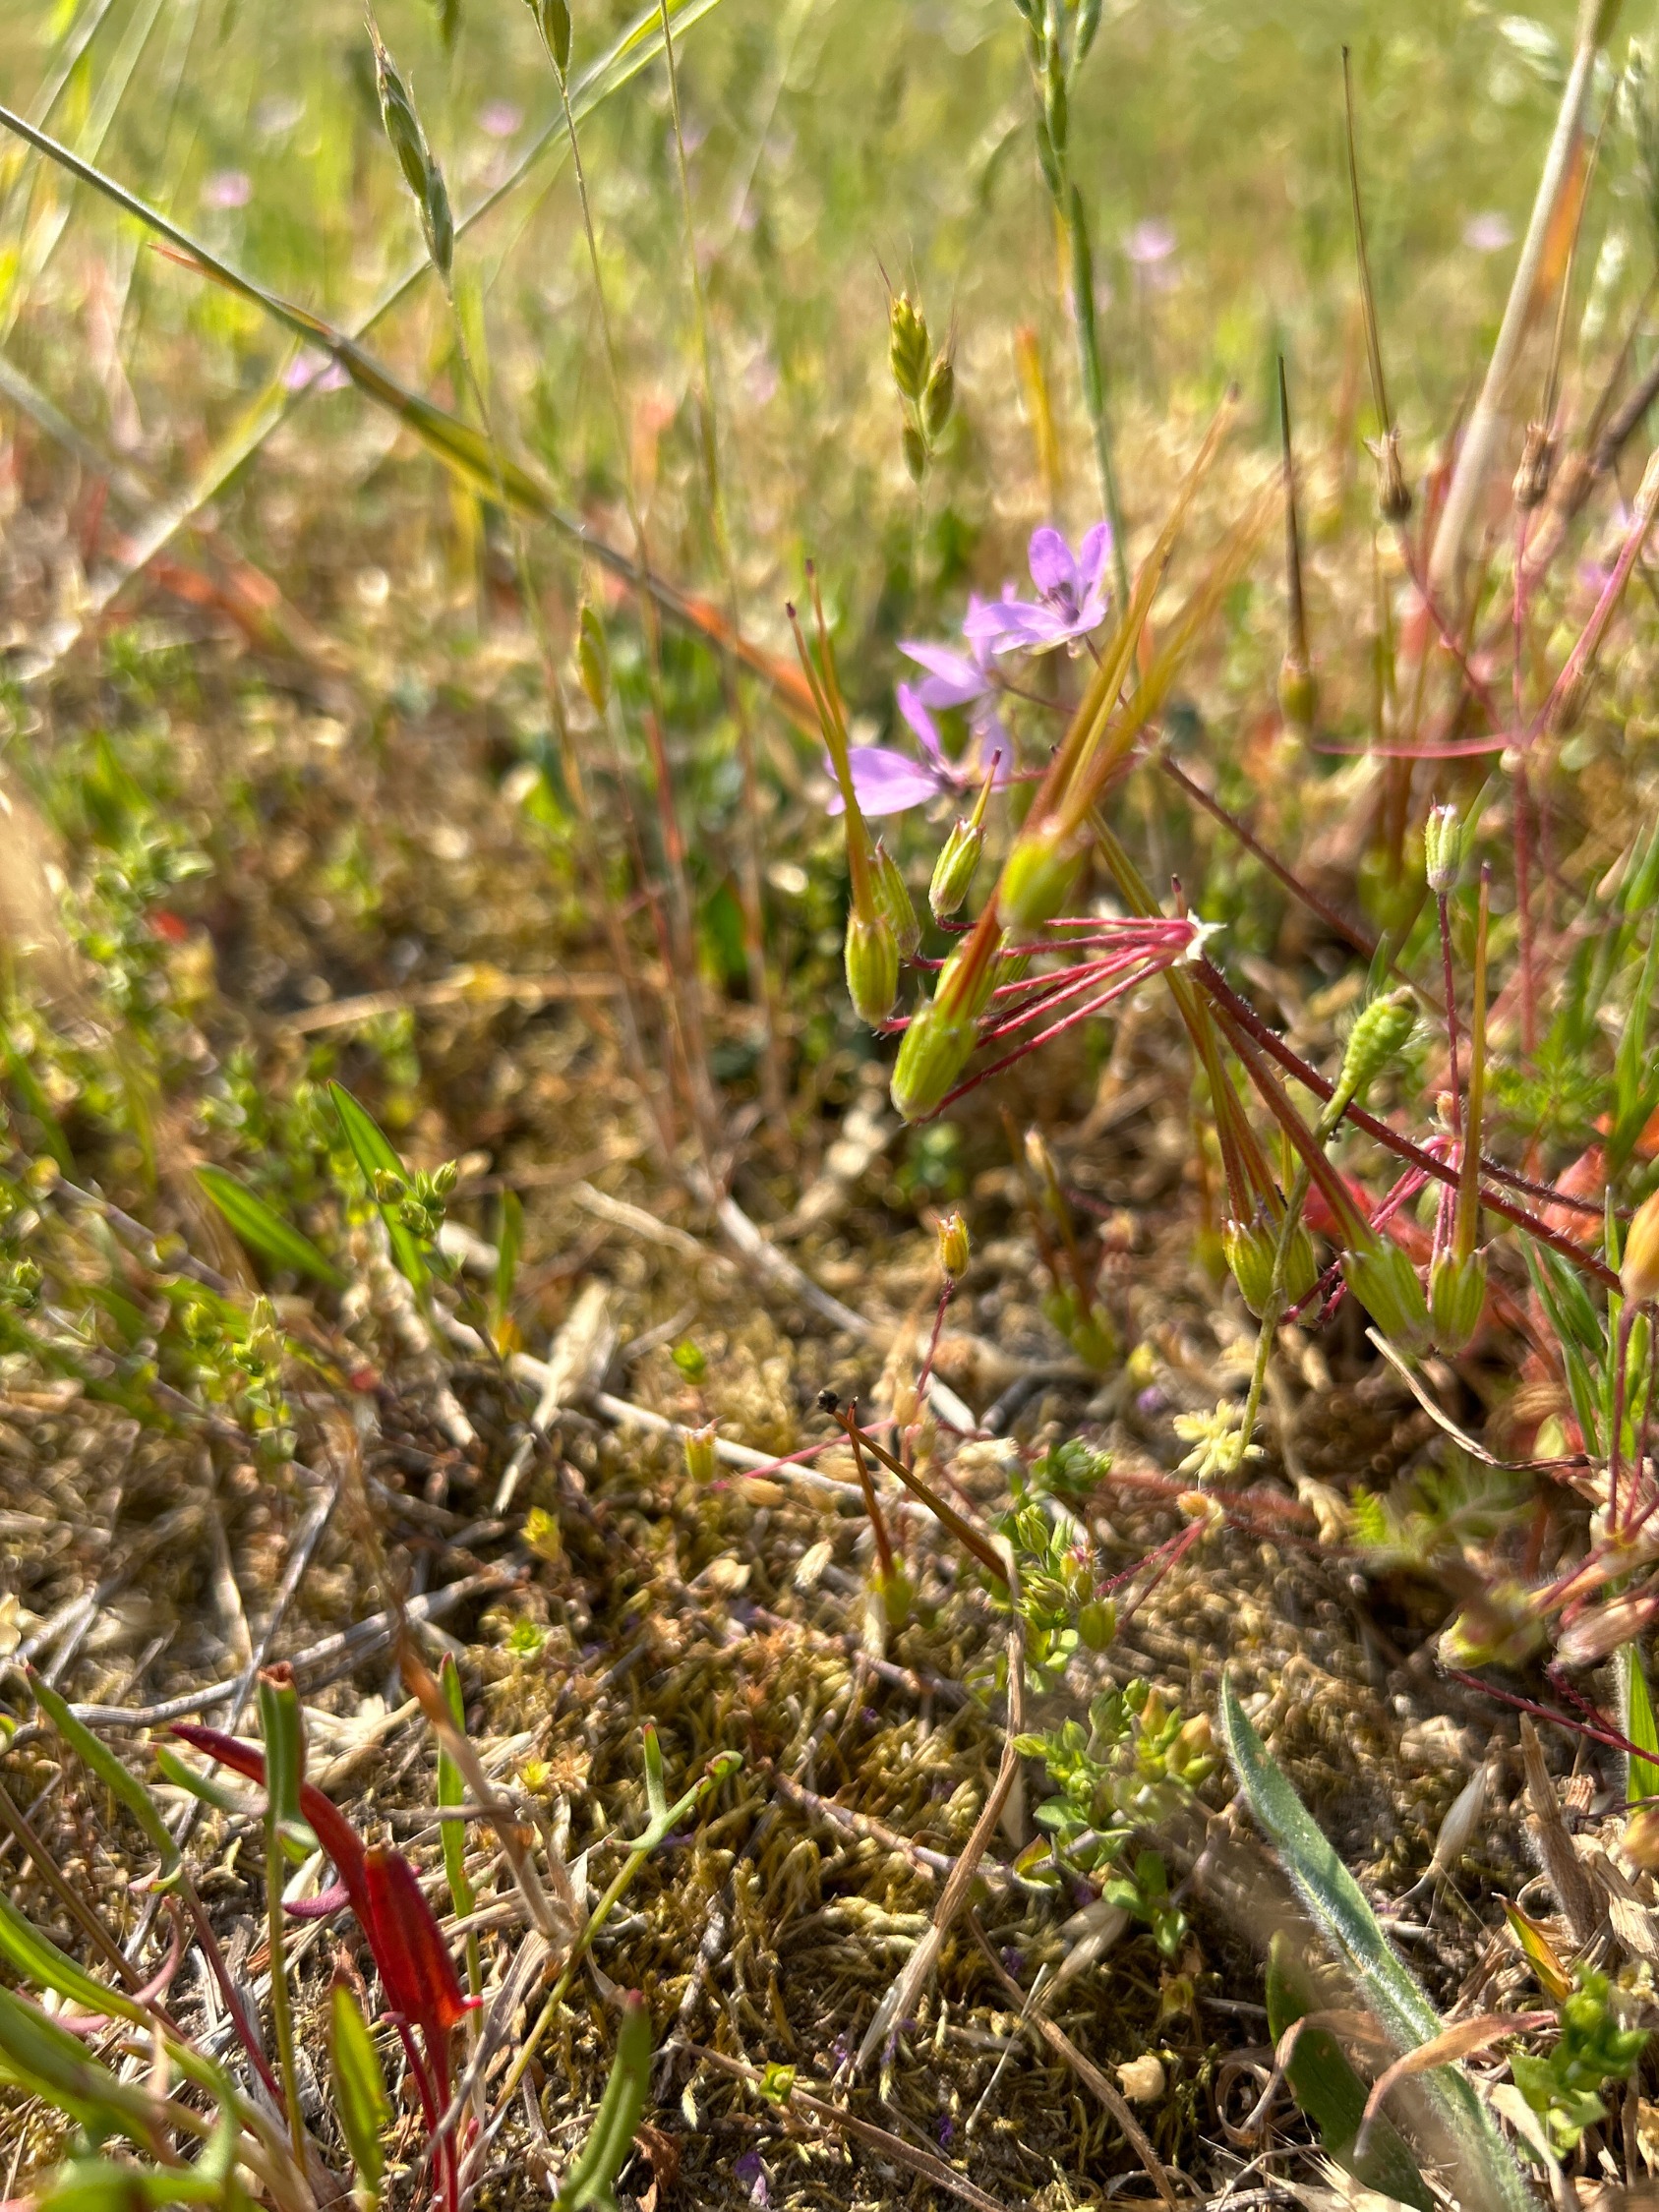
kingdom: Plantae
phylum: Tracheophyta
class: Magnoliopsida
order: Geraniales
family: Geraniaceae
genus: Erodium
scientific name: Erodium cicutarium
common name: Hejrenæb
